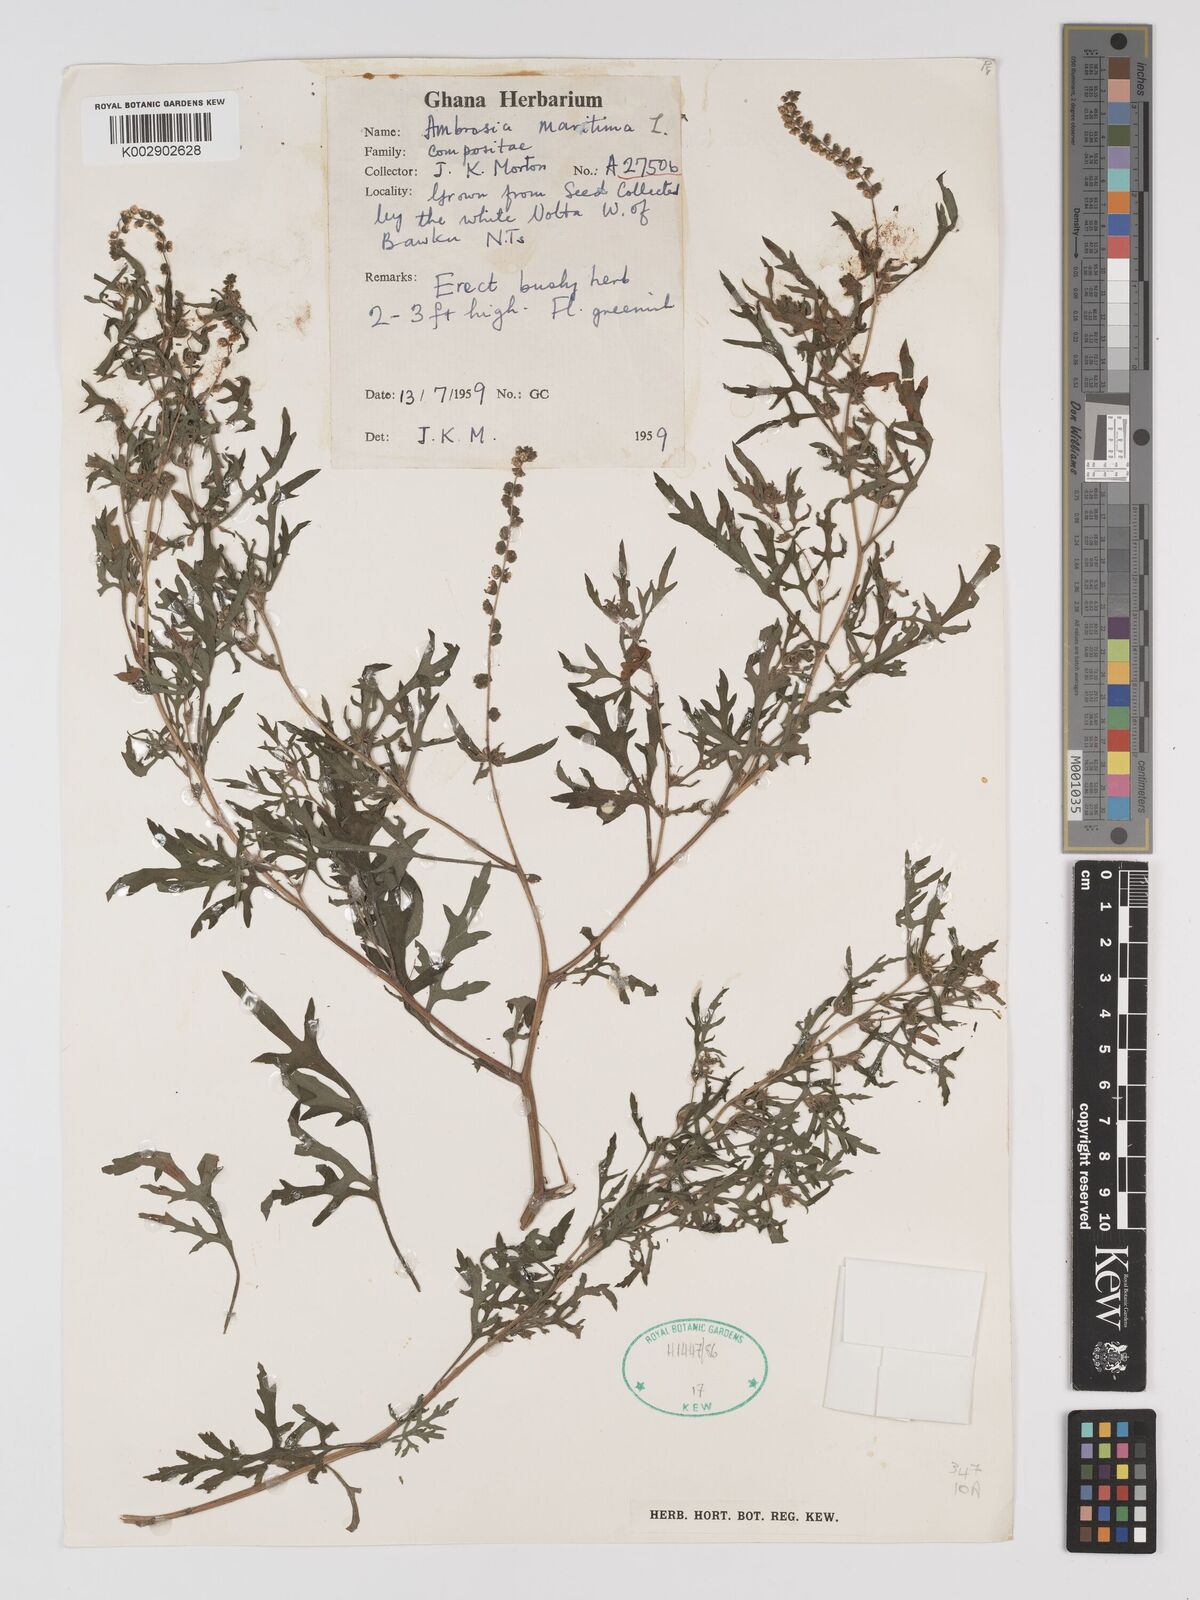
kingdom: Plantae
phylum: Tracheophyta
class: Magnoliopsida
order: Asterales
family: Asteraceae
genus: Ambrosia
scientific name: Ambrosia maritima
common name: Sea ambrosia
